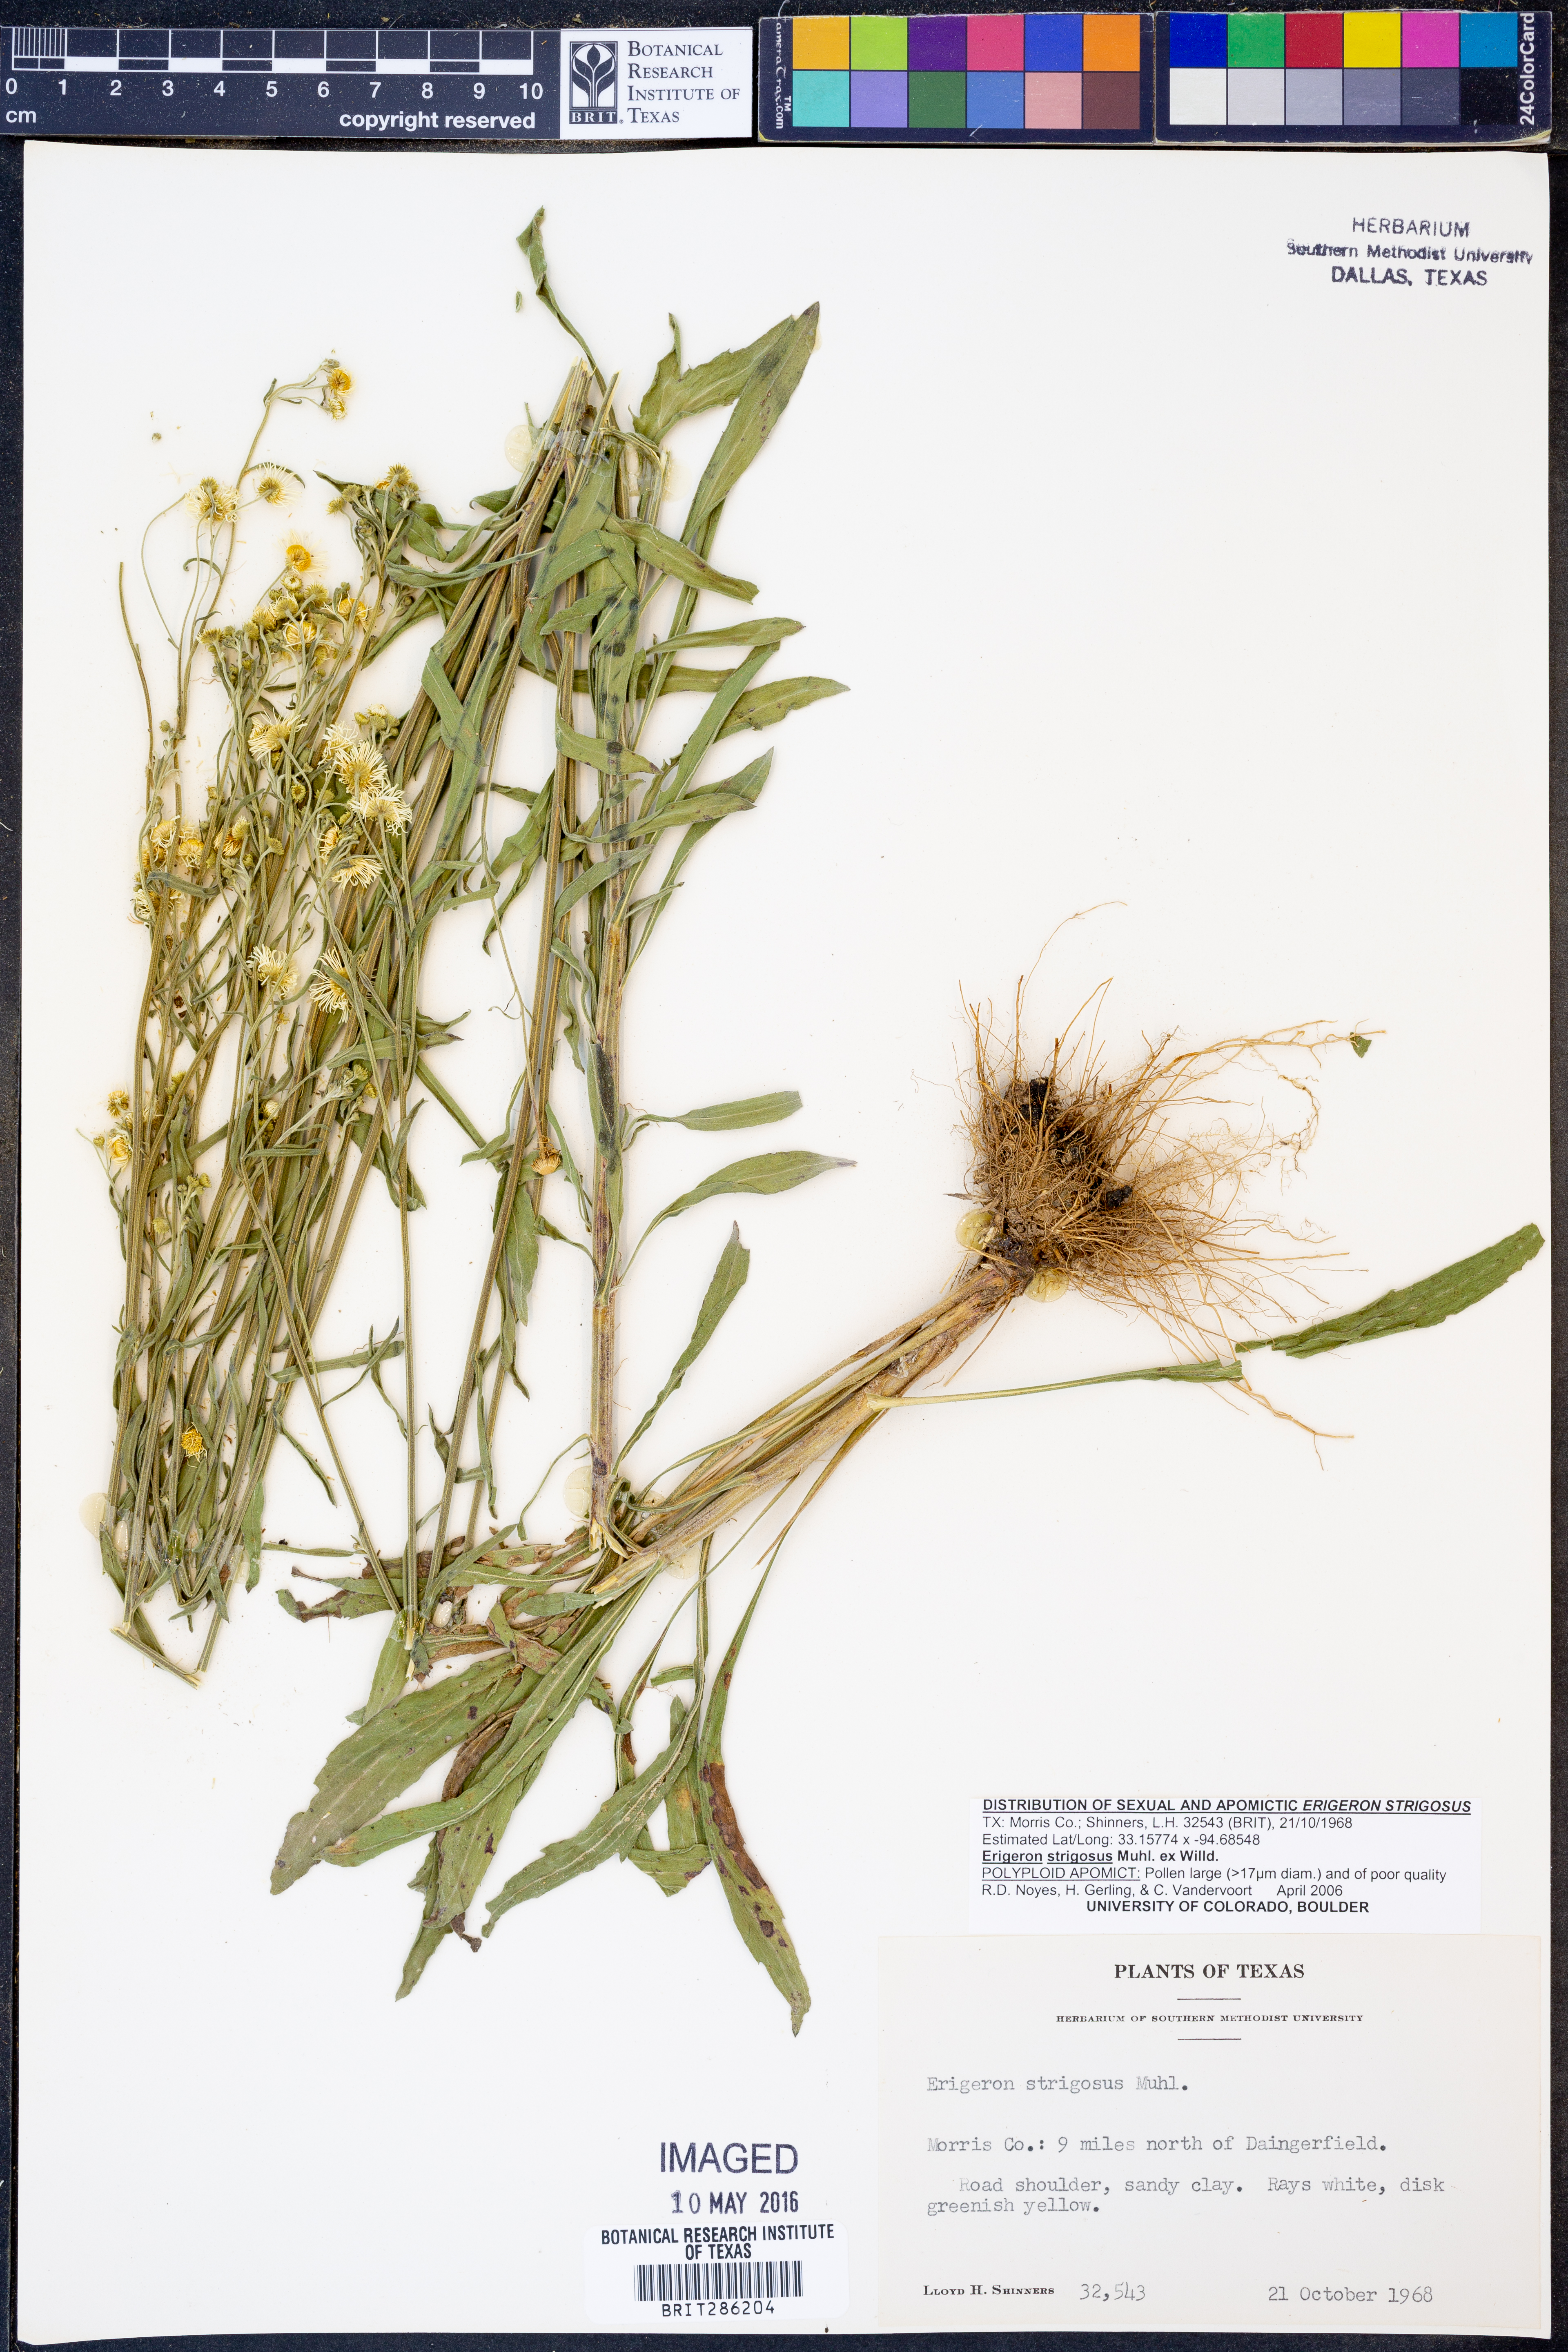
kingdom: Plantae
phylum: Tracheophyta
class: Magnoliopsida
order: Asterales
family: Asteraceae
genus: Erigeron
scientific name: Erigeron strigosus
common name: Common eastern fleabane
